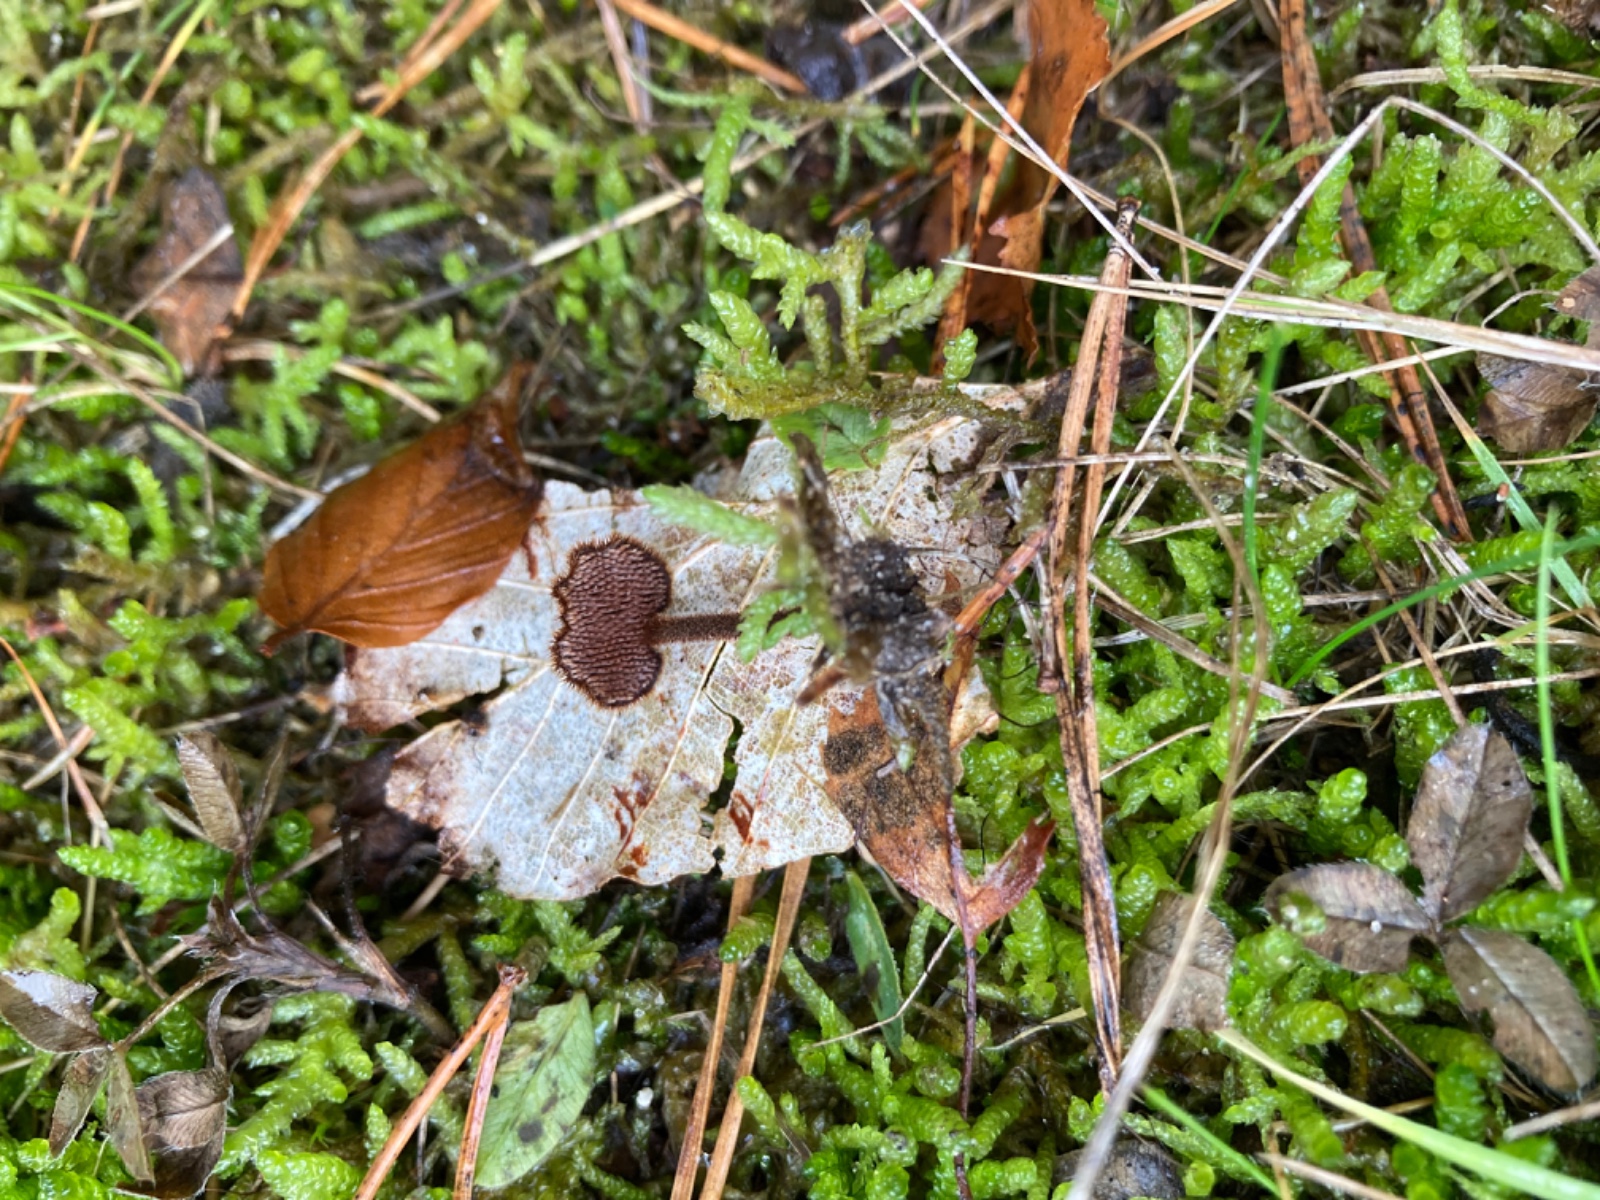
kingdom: Fungi
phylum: Basidiomycota
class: Agaricomycetes
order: Russulales
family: Auriscalpiaceae
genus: Auriscalpium
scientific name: Auriscalpium vulgare
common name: koglepigsvamp
